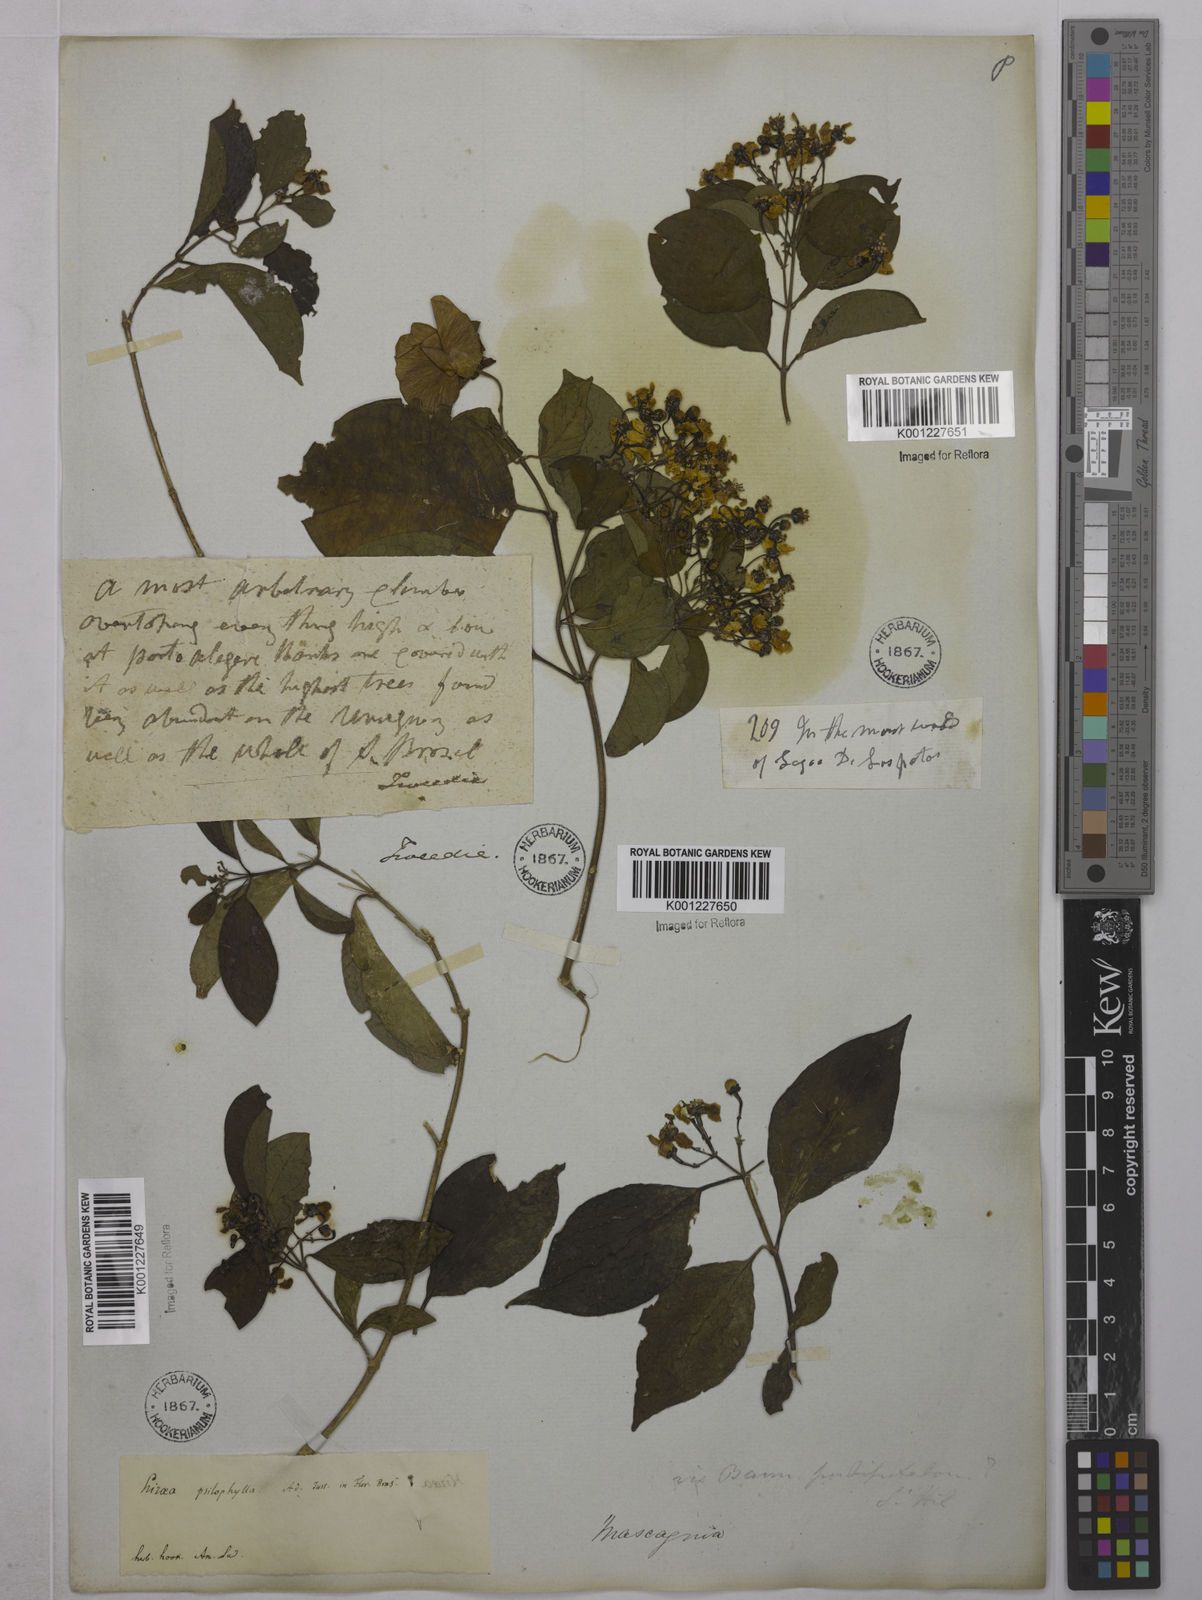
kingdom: Plantae
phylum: Tracheophyta
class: Magnoliopsida
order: Malpighiales
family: Malpighiaceae
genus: Callaeum
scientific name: Callaeum psilophyllum
